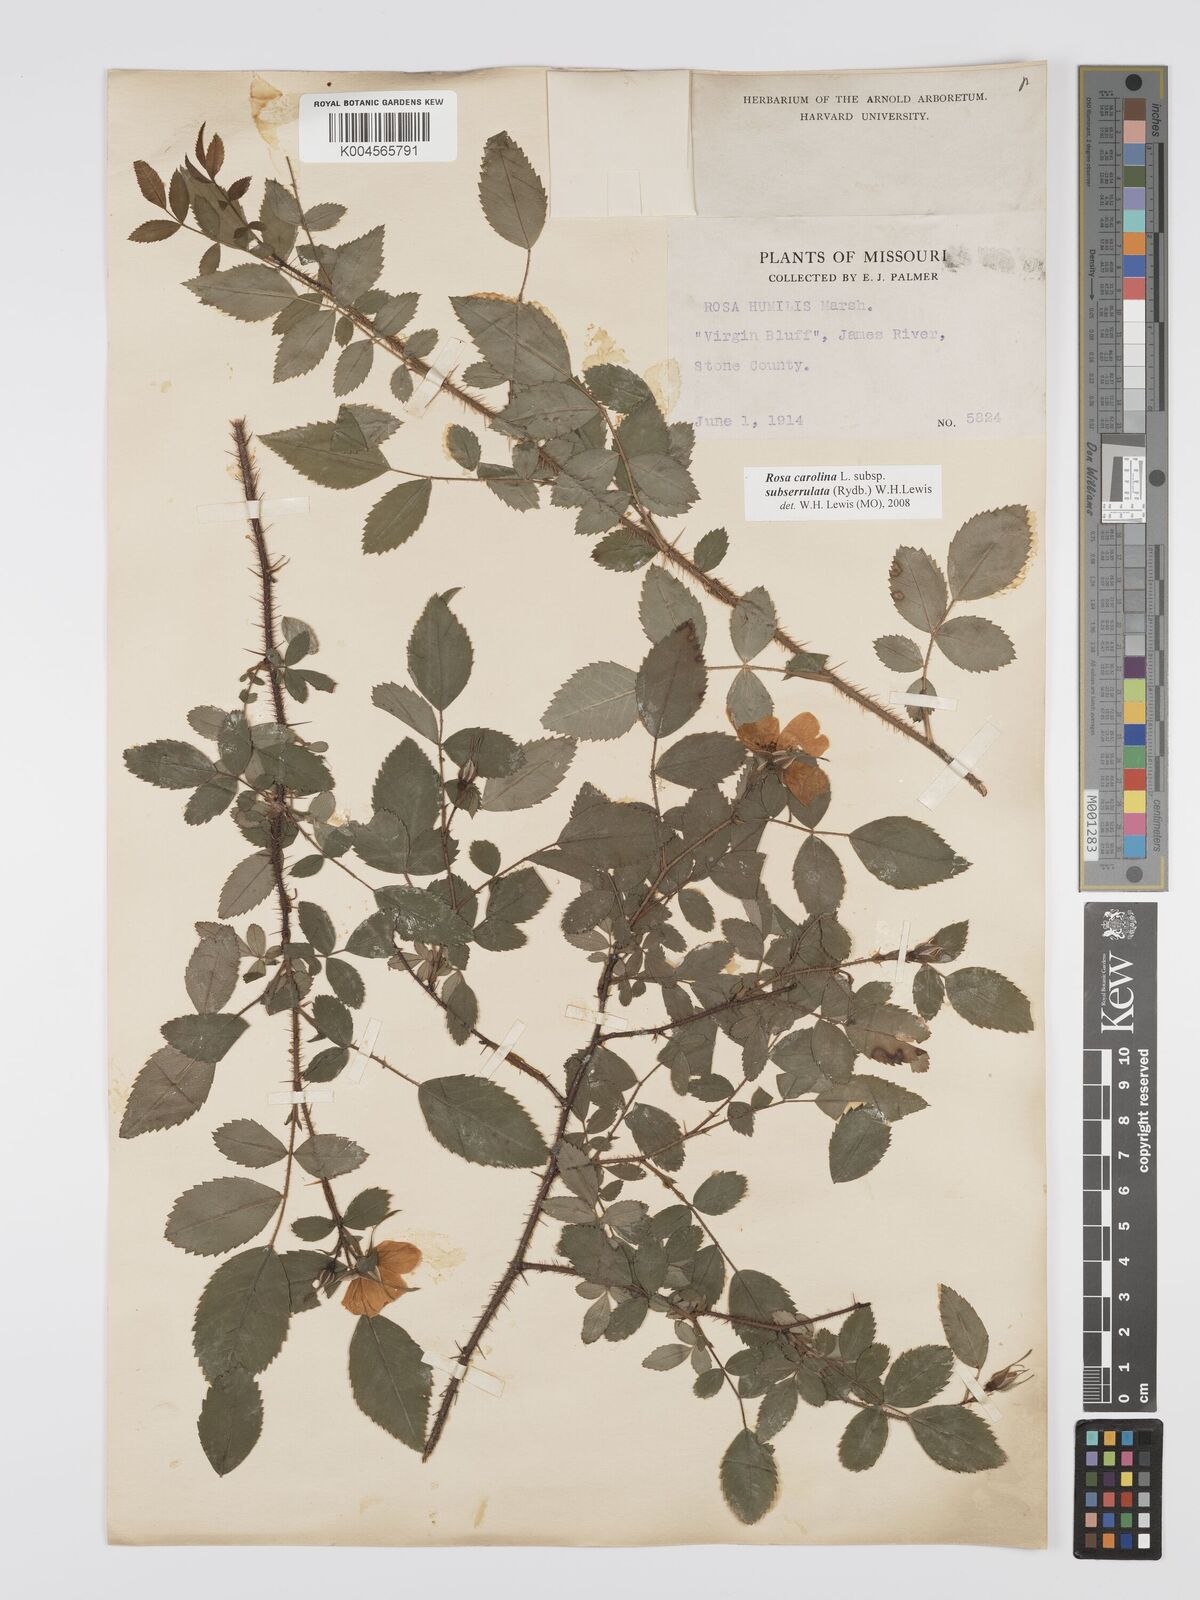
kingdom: Plantae
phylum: Tracheophyta
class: Magnoliopsida
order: Rosales
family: Rosaceae
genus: Rosa
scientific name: Rosa carolina
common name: Pasture rose
